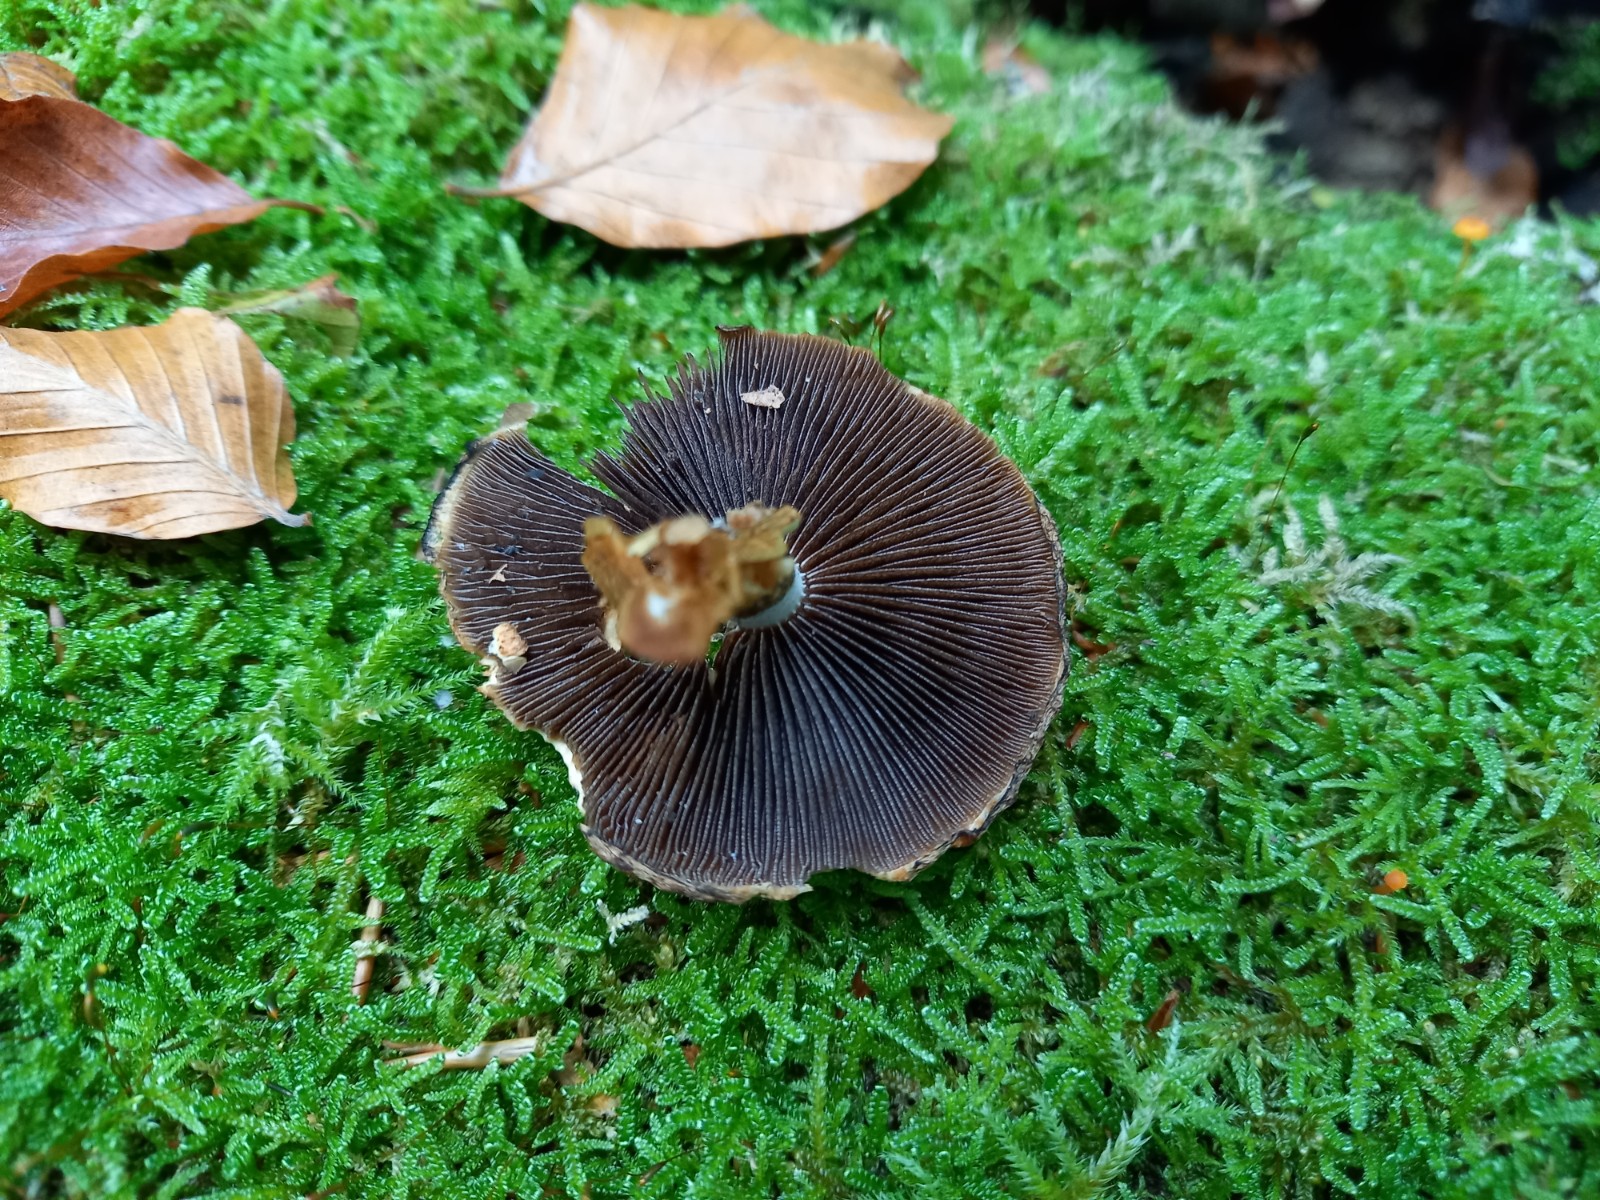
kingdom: Fungi
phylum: Basidiomycota
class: Agaricomycetes
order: Agaricales
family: Psathyrellaceae
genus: Lacrymaria
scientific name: Lacrymaria lacrymabunda
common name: grædende mørkhat
